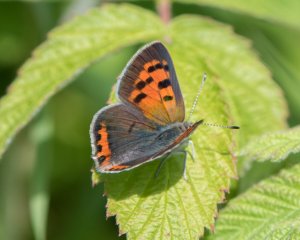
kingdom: Animalia
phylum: Arthropoda
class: Insecta
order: Lepidoptera
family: Lycaenidae
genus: Lycaena
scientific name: Lycaena phlaeas
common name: American Copper
